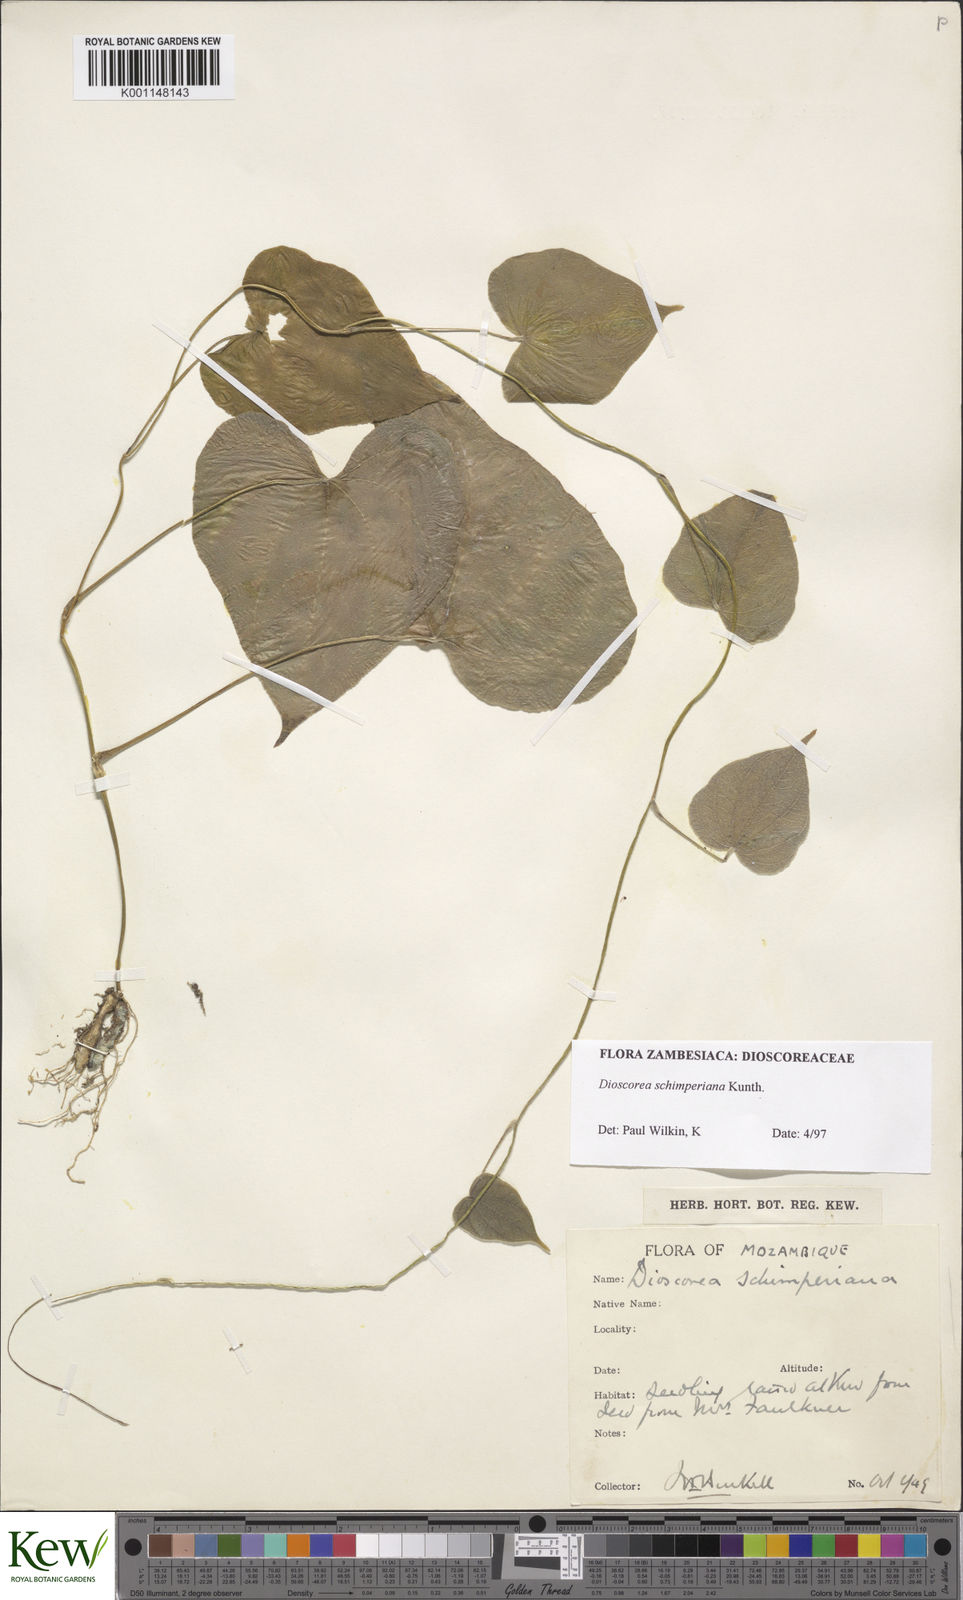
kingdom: Plantae
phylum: Tracheophyta
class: Liliopsida
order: Dioscoreales
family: Dioscoreaceae
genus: Dioscorea
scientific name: Dioscorea schimperiana
